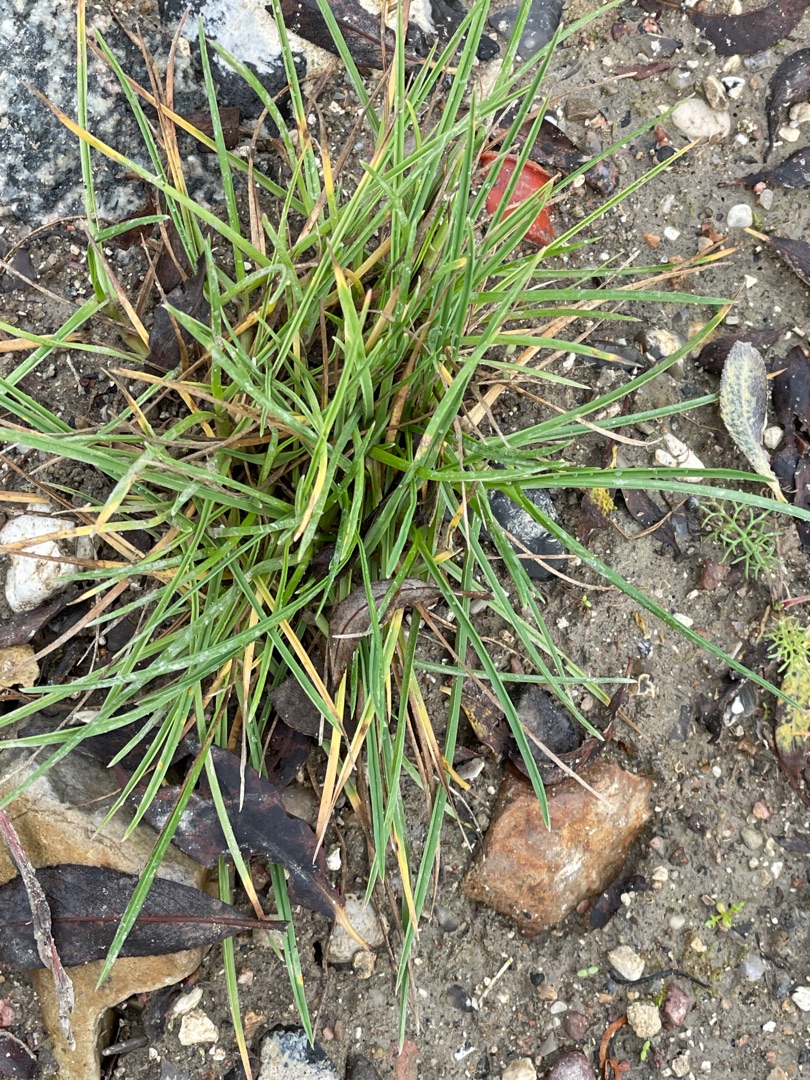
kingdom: Plantae
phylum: Tracheophyta
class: Liliopsida
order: Poales
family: Poaceae
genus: Lolium
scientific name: Lolium perenne
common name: Almindelig rajgræs
